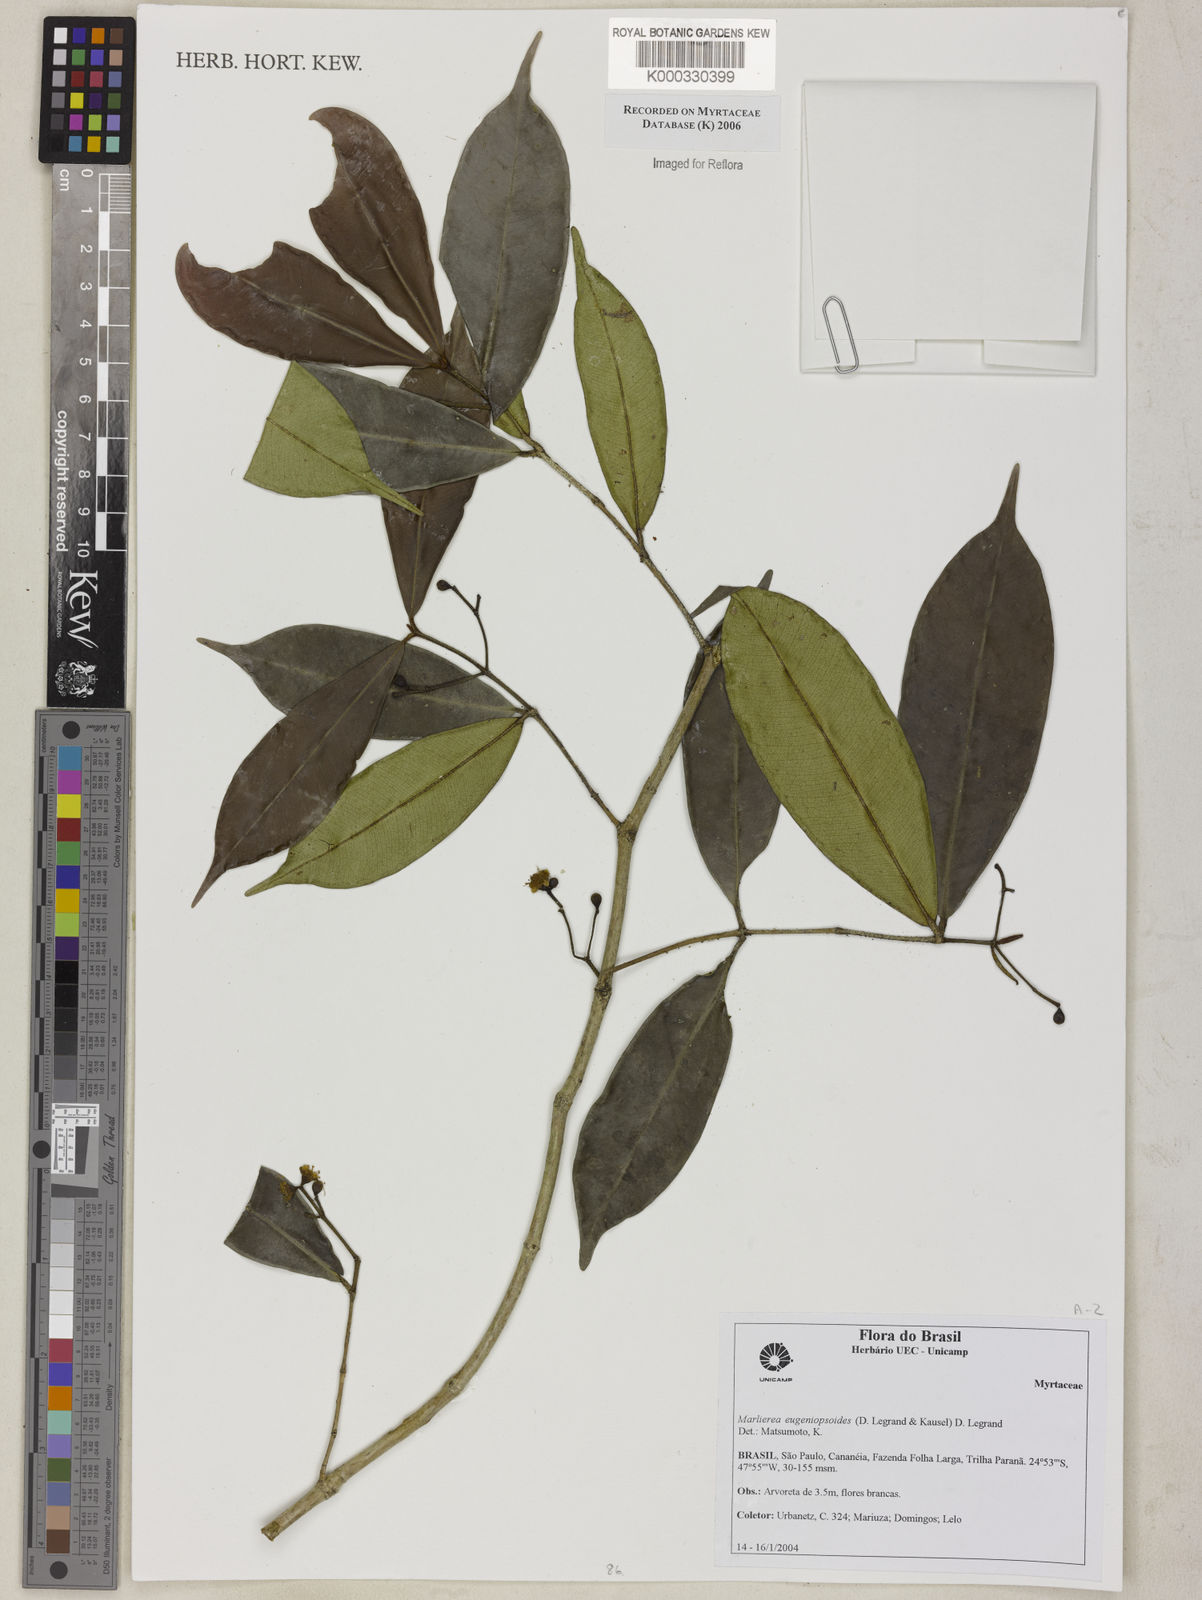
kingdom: Plantae
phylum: Tracheophyta
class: Magnoliopsida
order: Myrtales
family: Myrtaceae
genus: Myrcia
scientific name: Myrcia eugeniopsoides
